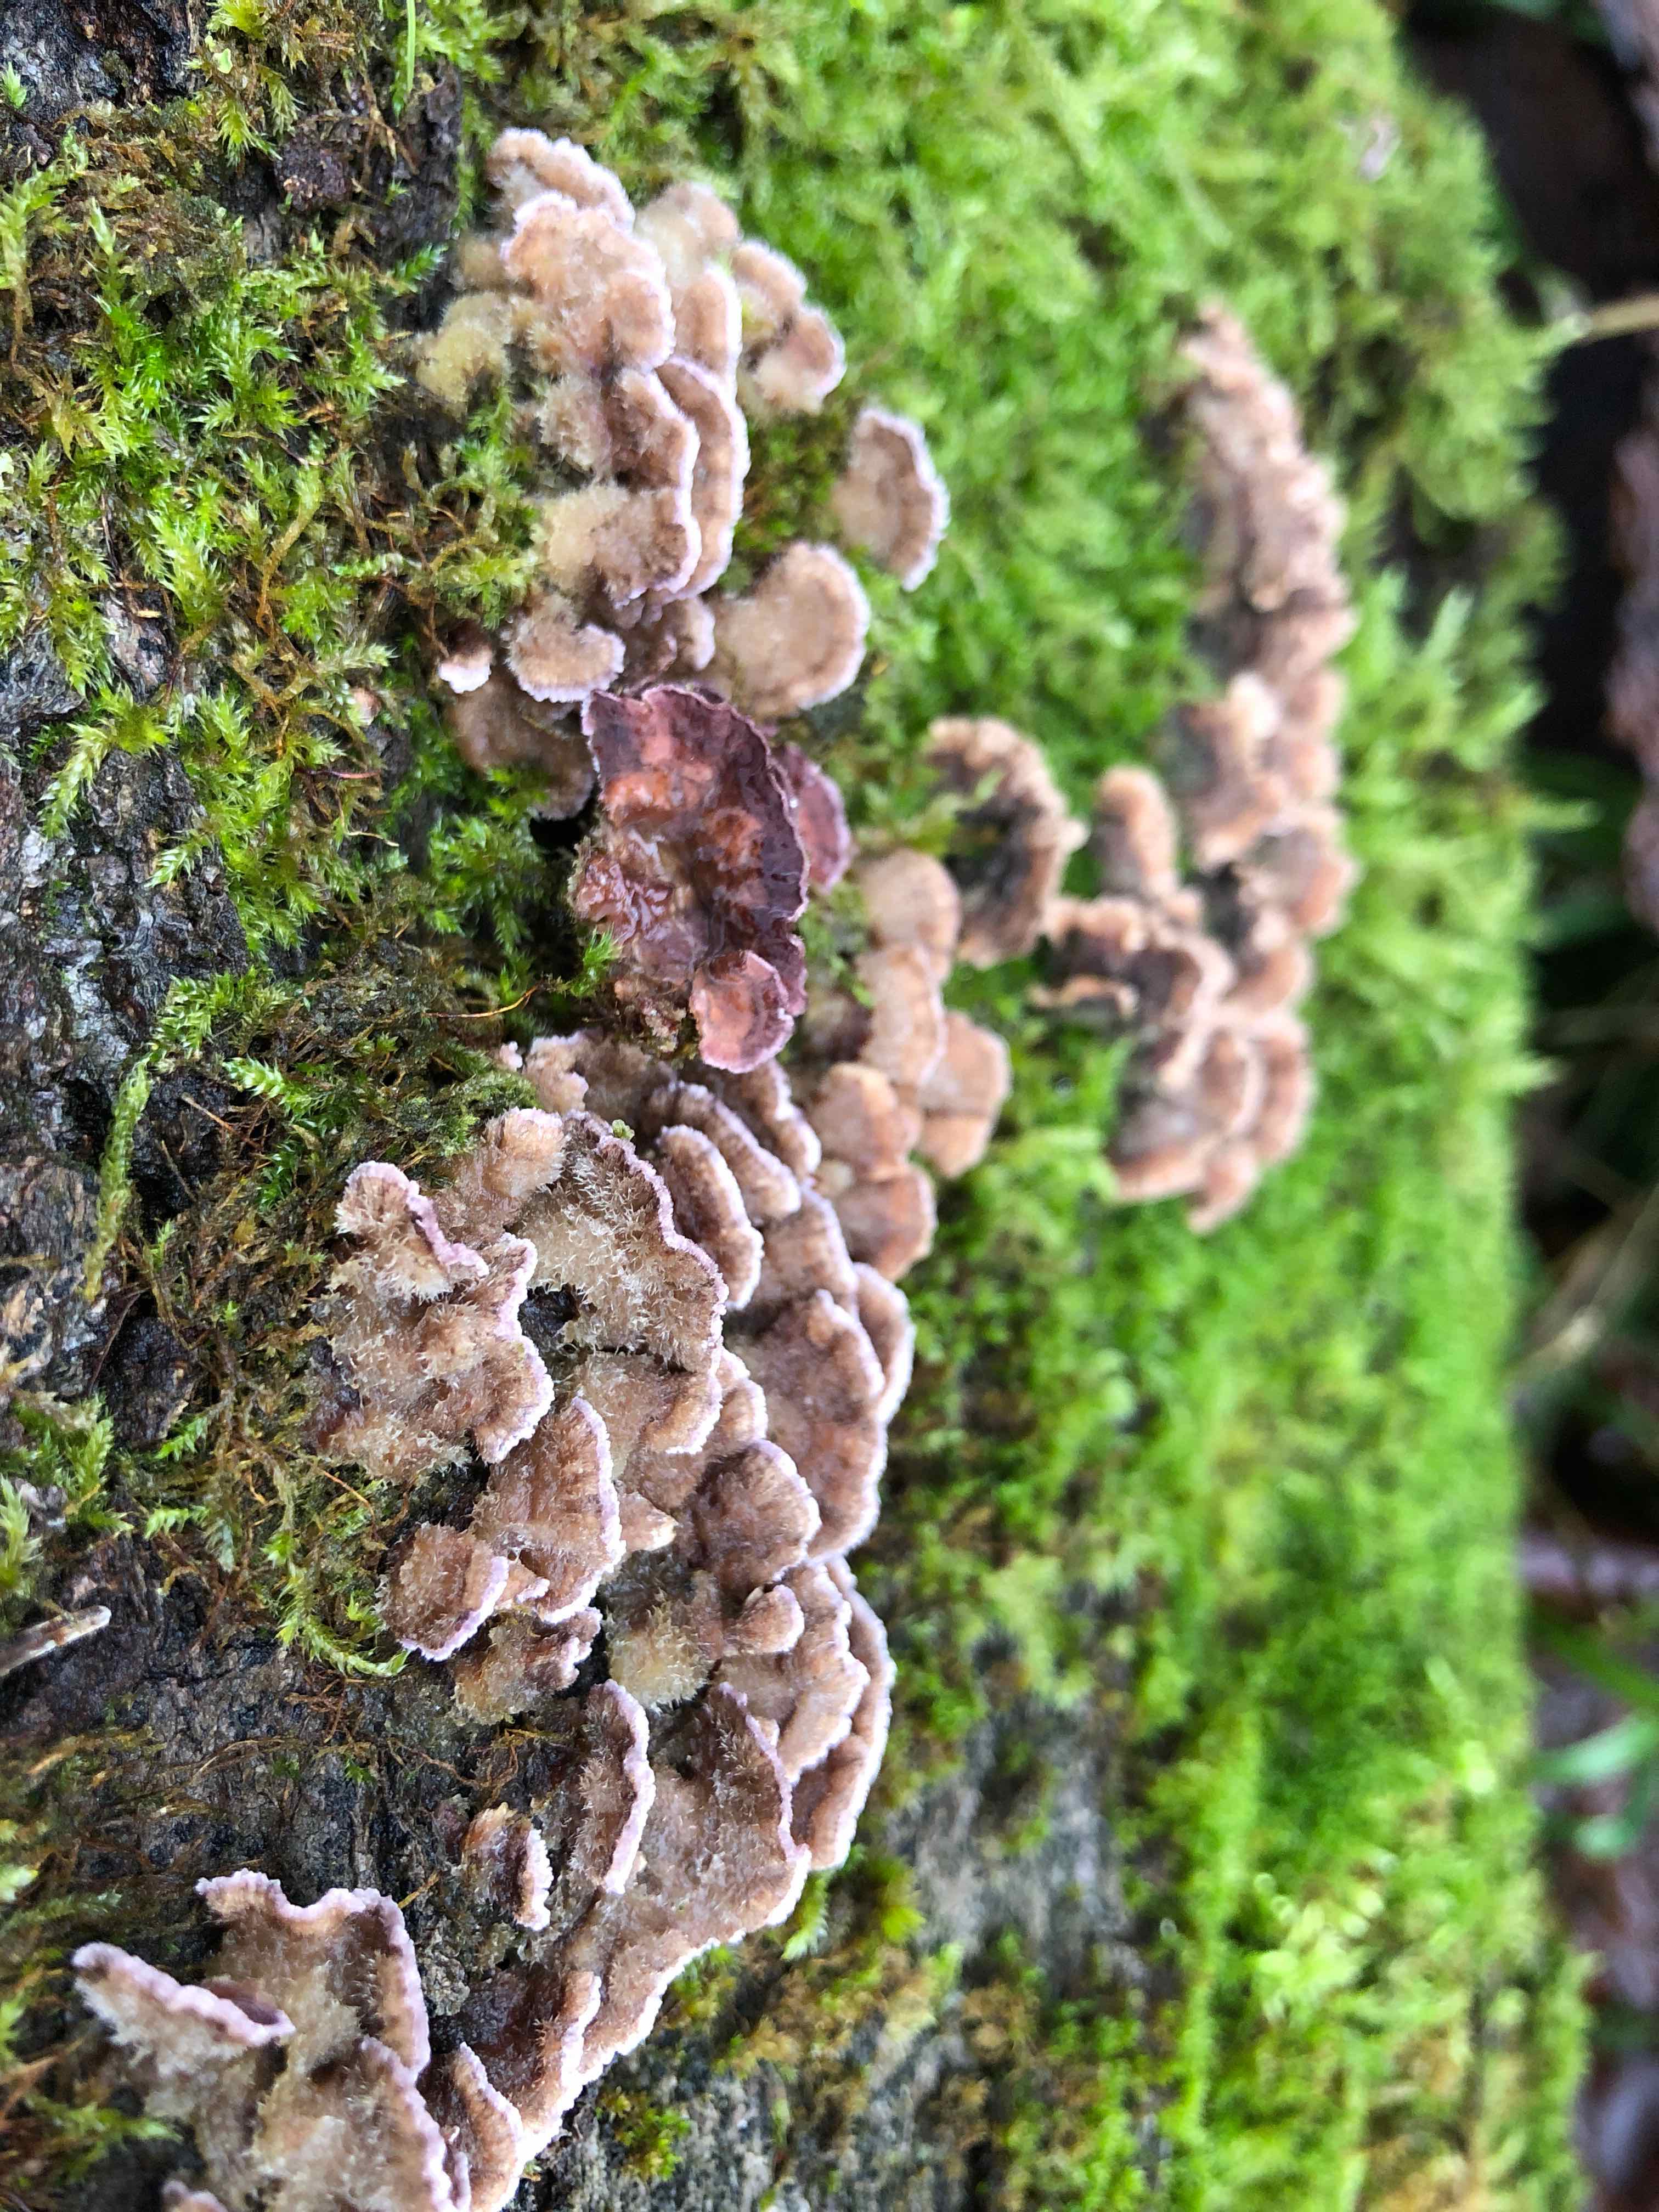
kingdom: Fungi
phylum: Basidiomycota
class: Agaricomycetes
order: Agaricales
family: Cyphellaceae
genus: Chondrostereum
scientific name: Chondrostereum purpureum
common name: purpurlædersvamp
